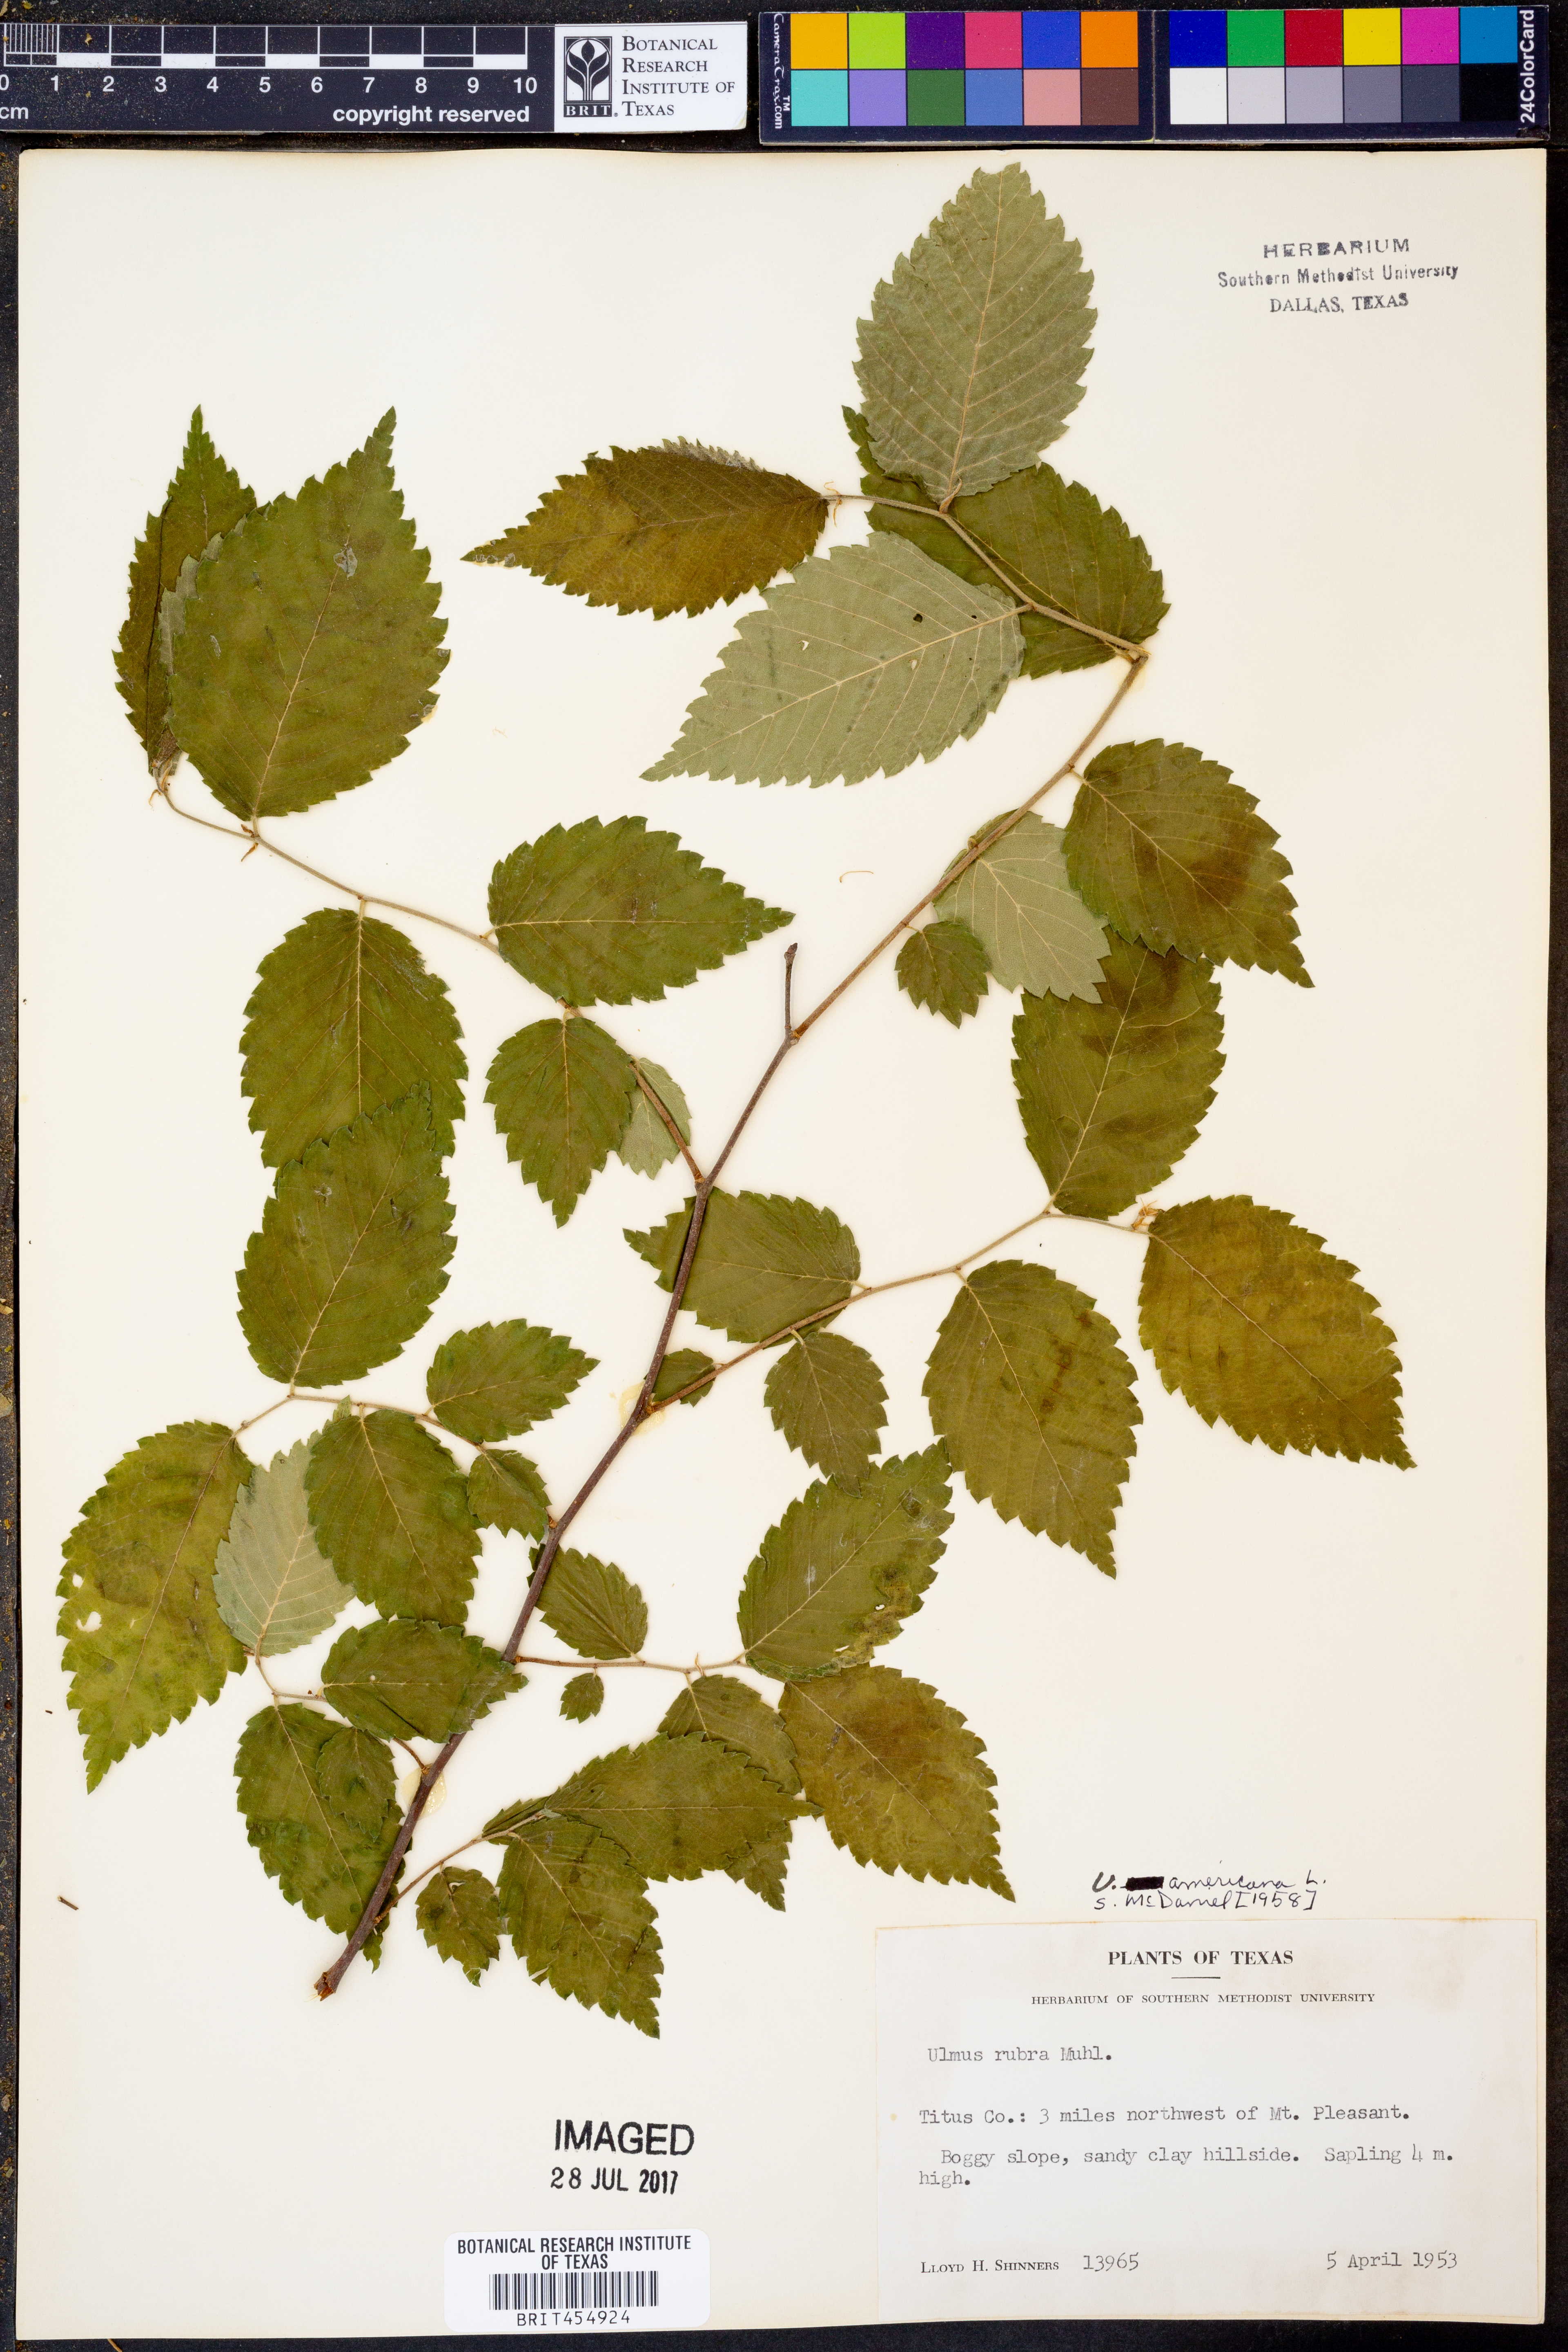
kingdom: Plantae
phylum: Tracheophyta
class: Magnoliopsida
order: Rosales
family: Ulmaceae
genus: Ulmus
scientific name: Ulmus americana
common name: American elm
